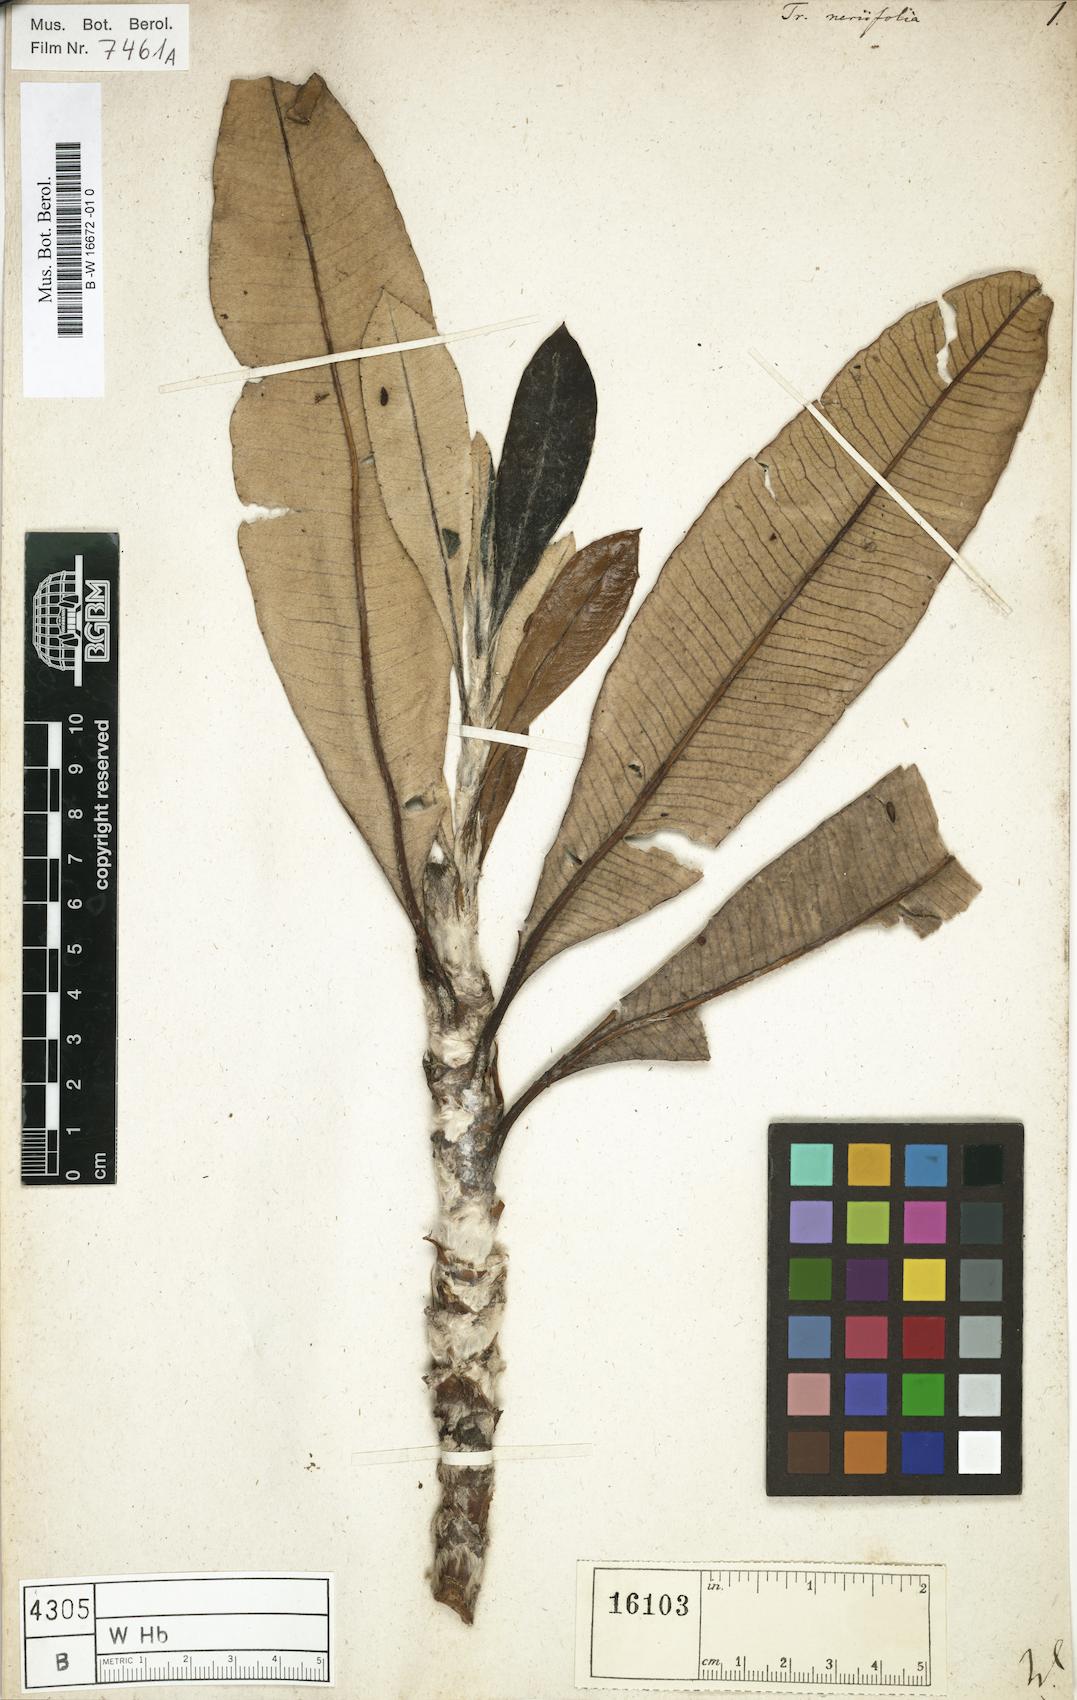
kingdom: Plantae
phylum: Tracheophyta
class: Magnoliopsida
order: Asterales
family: Asteraceae
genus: Trixis
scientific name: Trixis neriifolia
